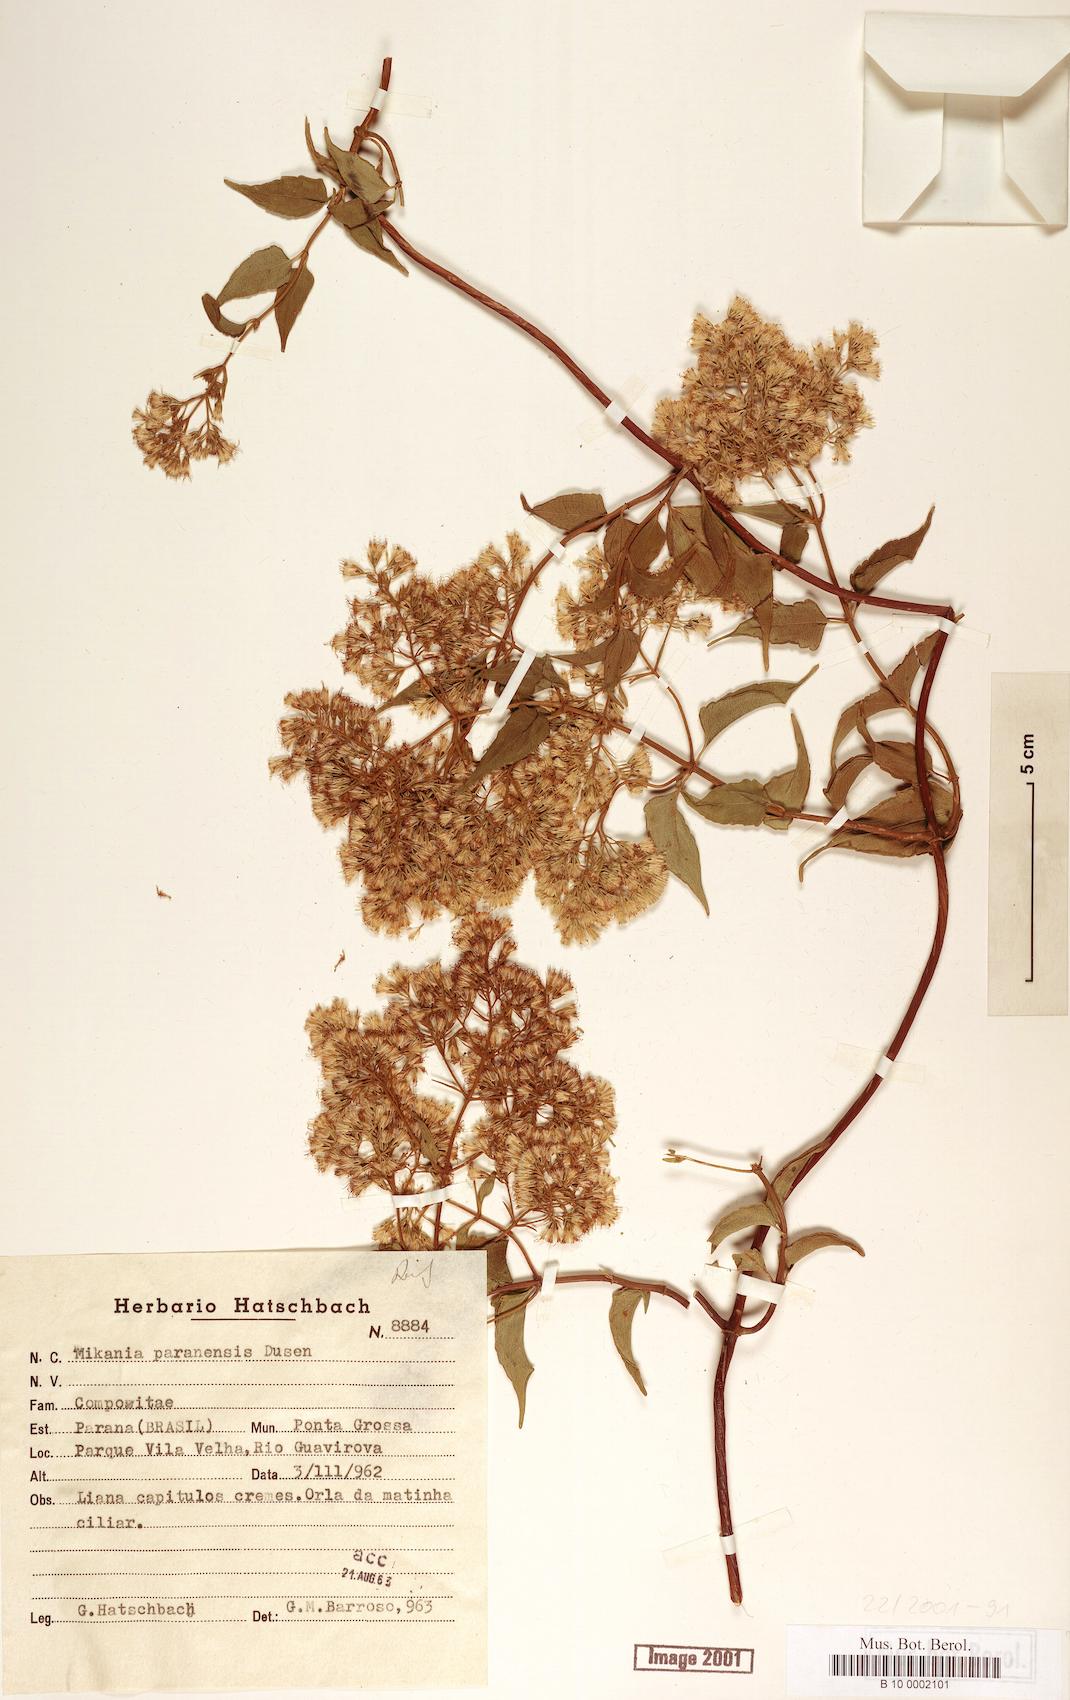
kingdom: Plantae
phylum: Tracheophyta
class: Magnoliopsida
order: Asterales
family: Asteraceae
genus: Mikania
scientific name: Mikania paranensis
